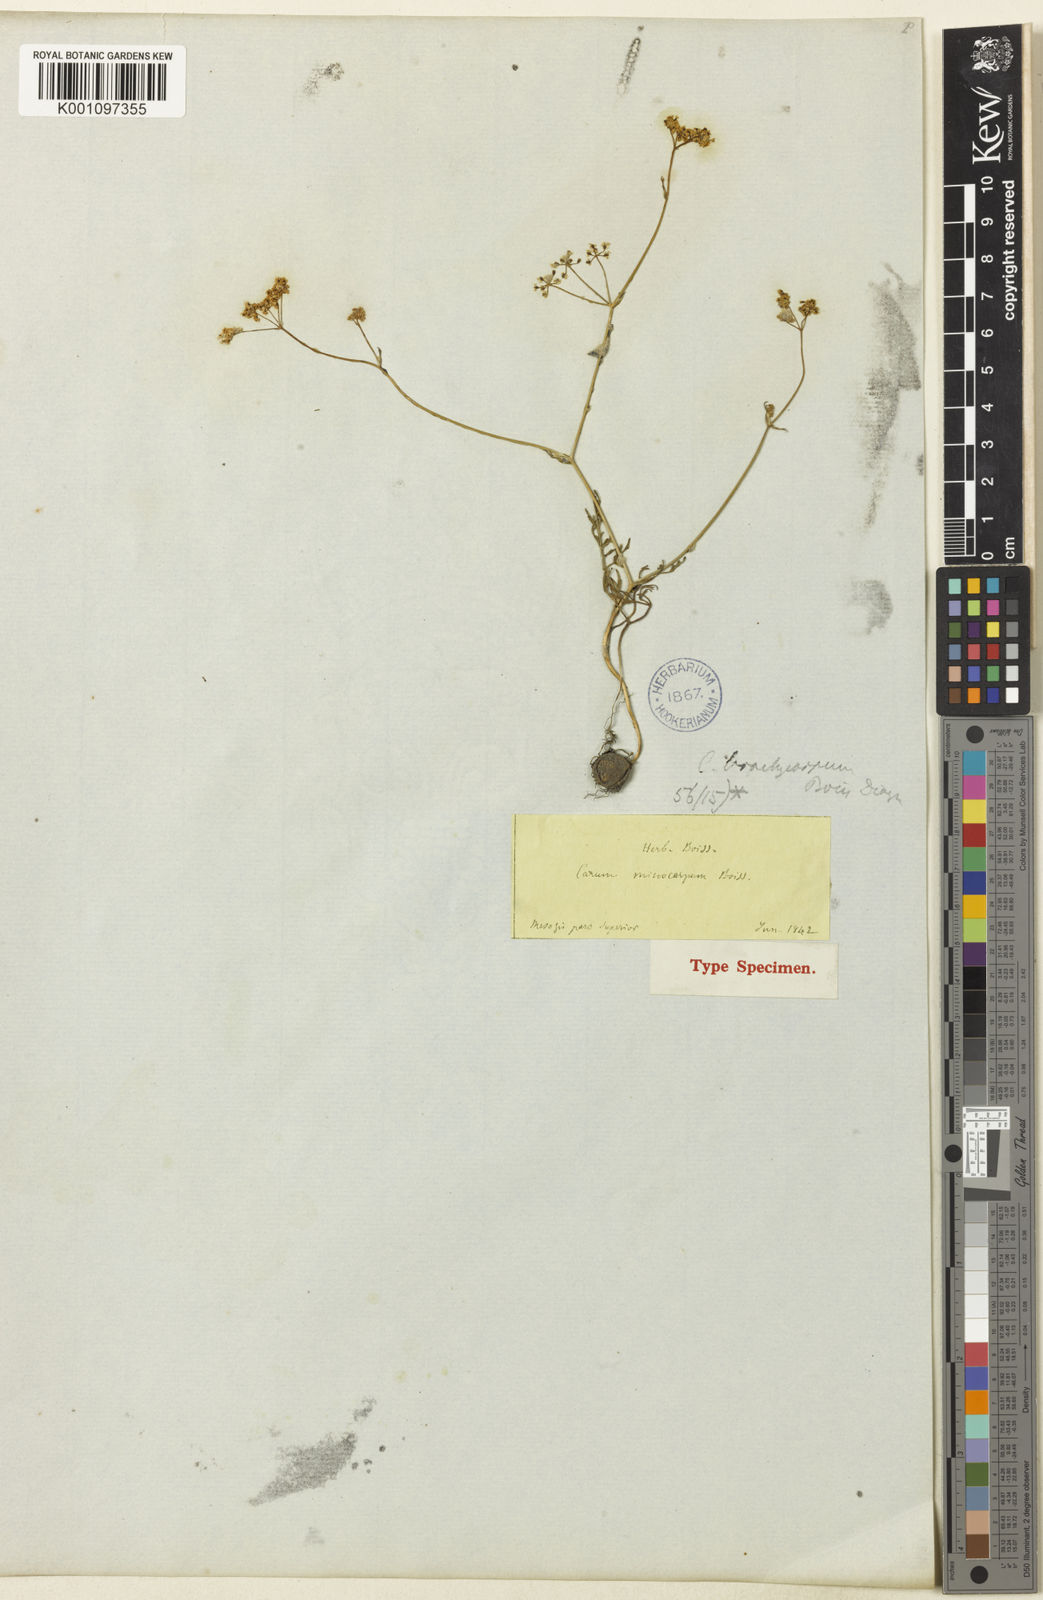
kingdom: Plantae
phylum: Tracheophyta
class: Magnoliopsida
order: Apiales
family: Apiaceae
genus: Bunium
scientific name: Bunium microcarpum
